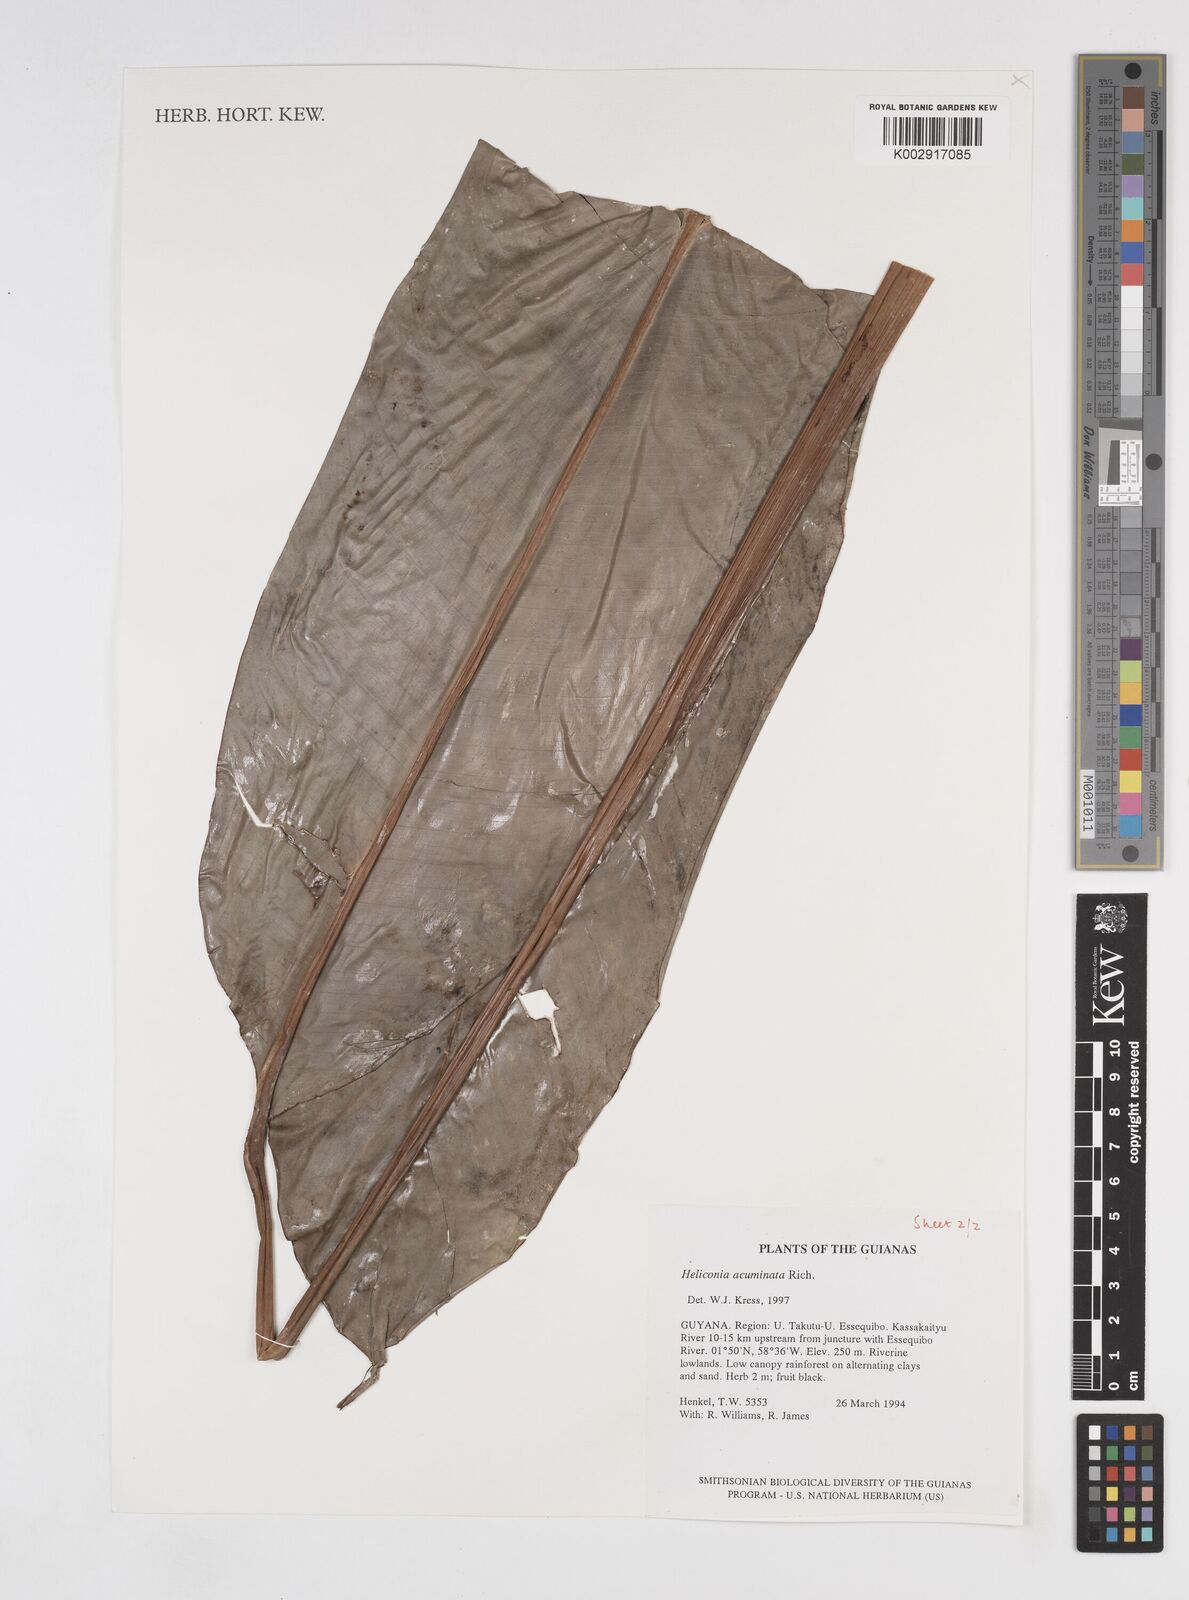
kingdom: Plantae
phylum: Tracheophyta
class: Liliopsida
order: Zingiberales
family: Heliconiaceae
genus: Heliconia
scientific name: Heliconia acuminata
